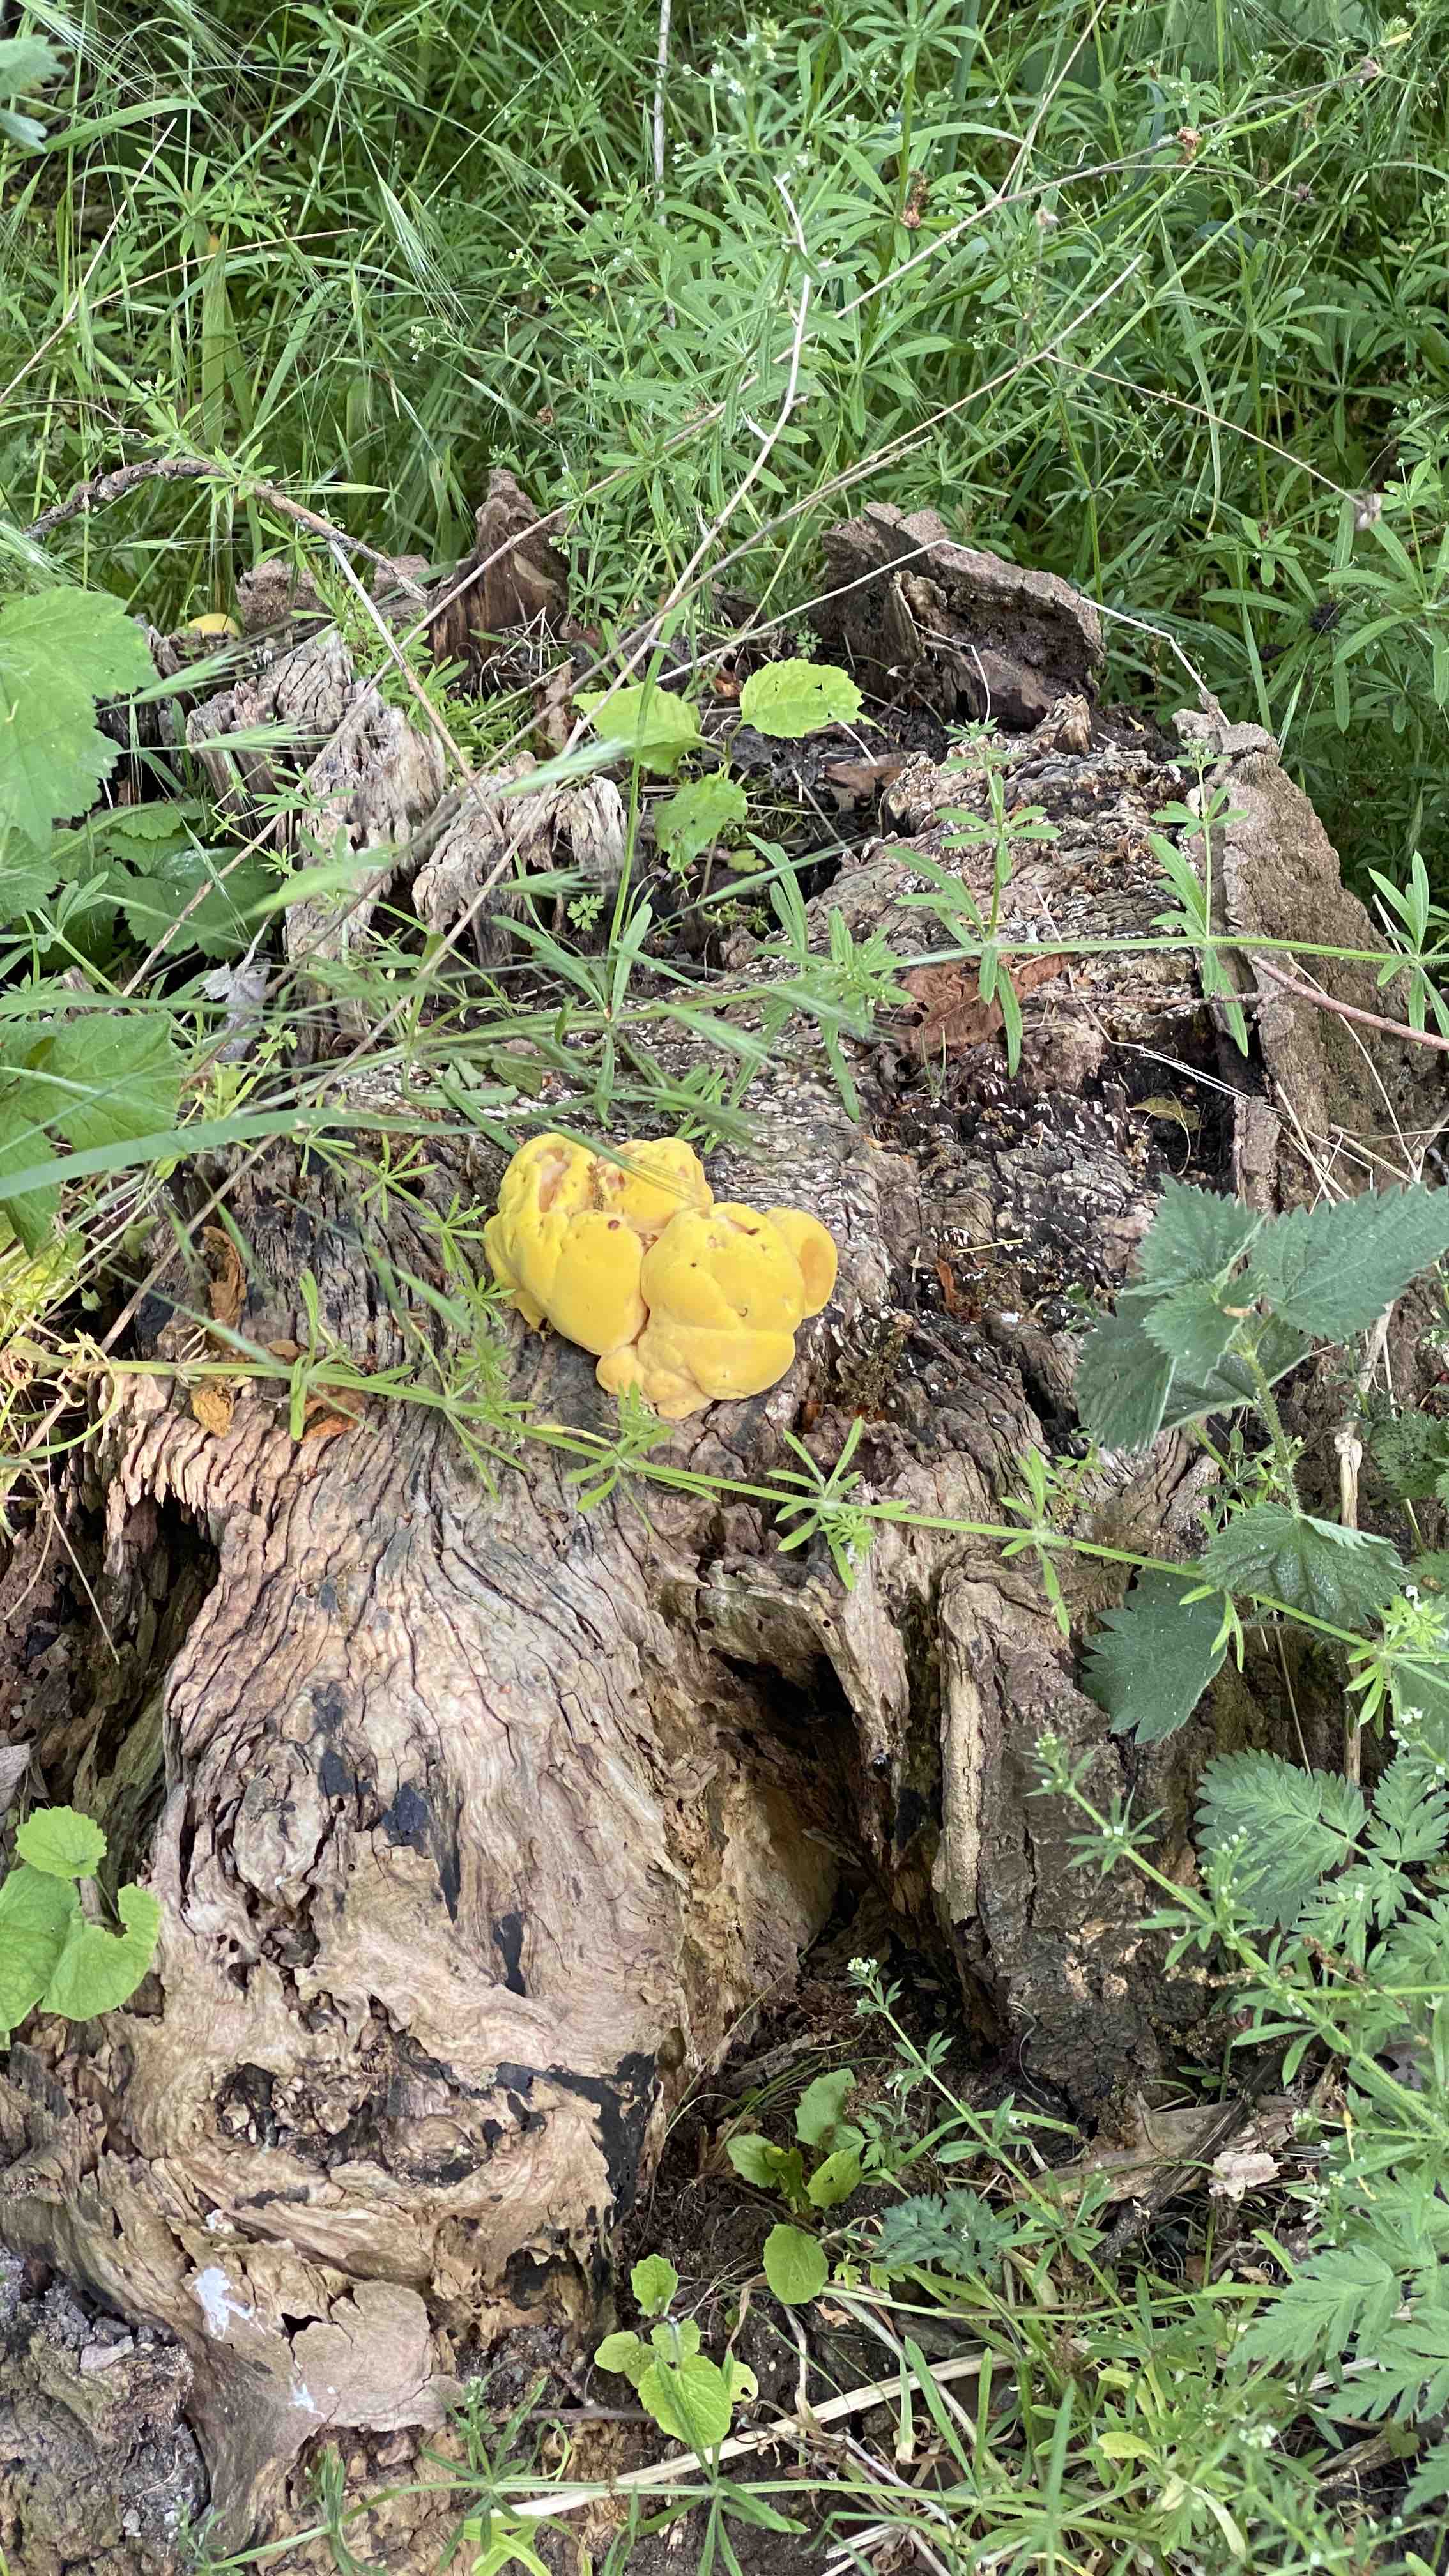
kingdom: Fungi
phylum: Basidiomycota
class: Agaricomycetes
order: Polyporales
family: Laetiporaceae
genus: Laetiporus
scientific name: Laetiporus sulphureus
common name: svovlporesvamp
